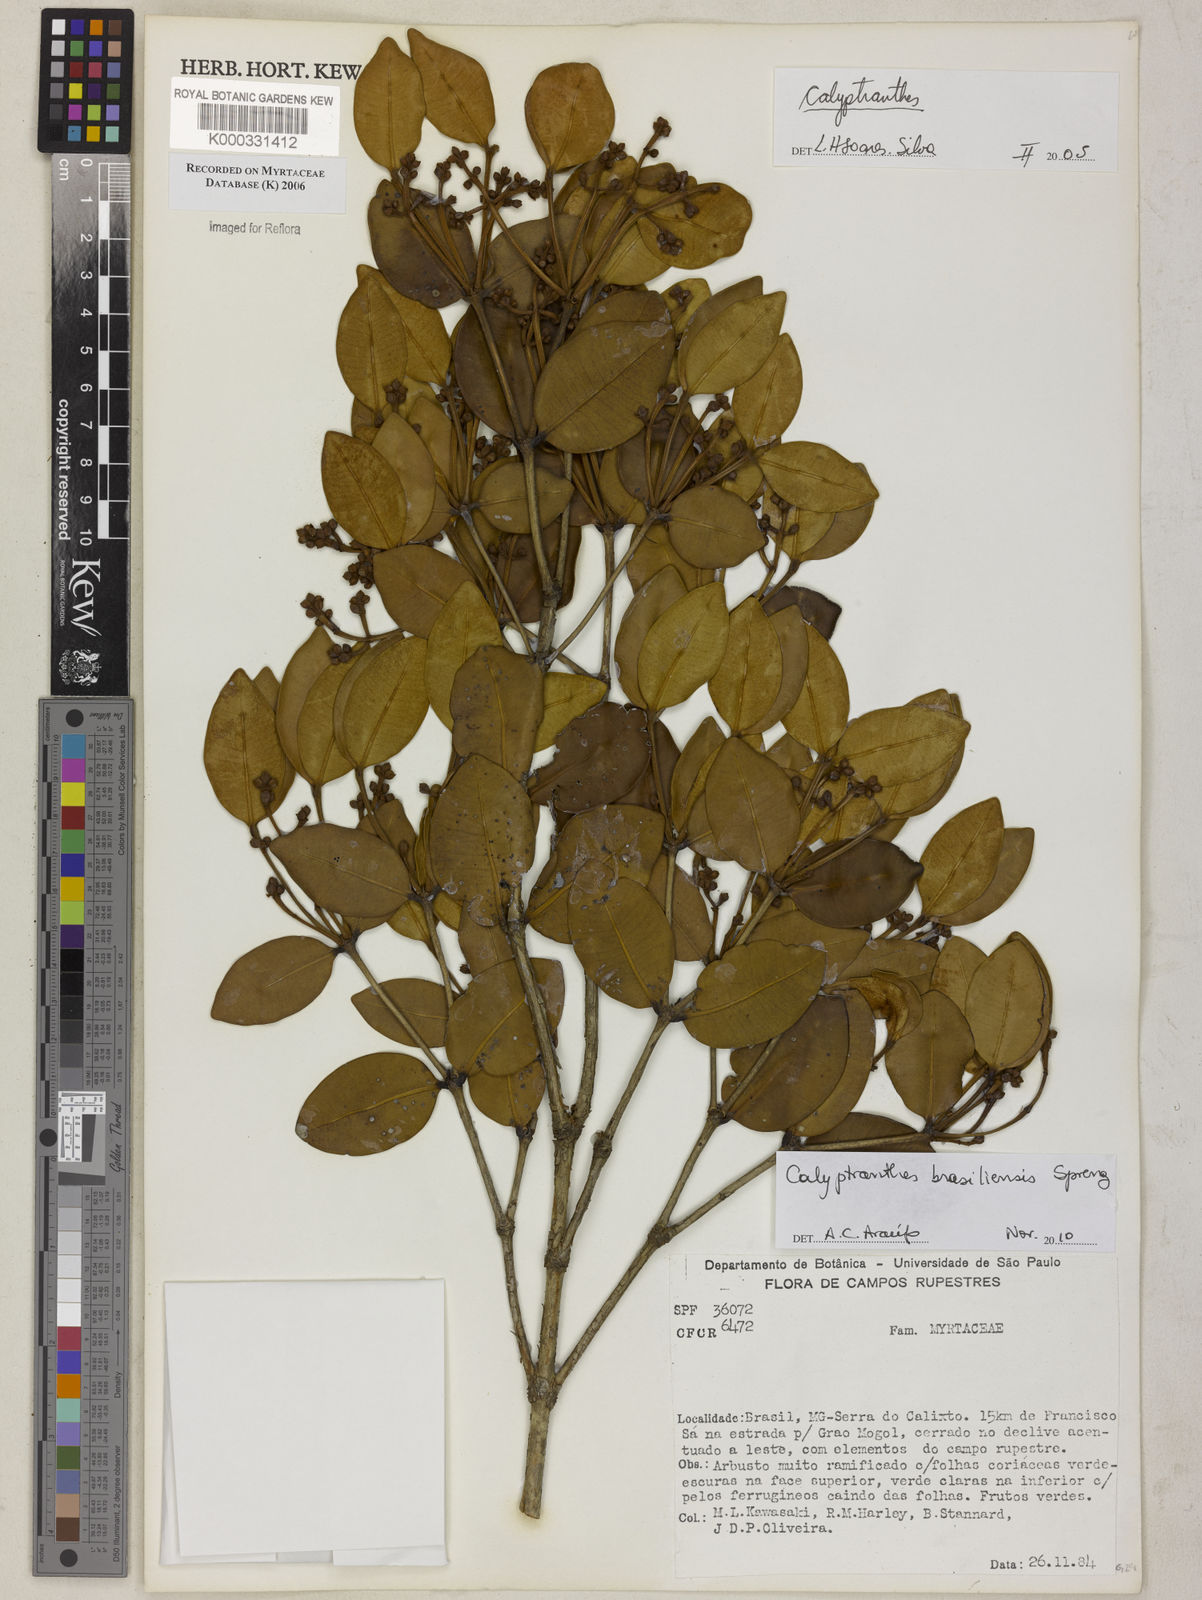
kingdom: Plantae
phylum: Tracheophyta
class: Magnoliopsida
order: Myrtales
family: Myrtaceae
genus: Calyptranthes
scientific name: Calyptranthes
